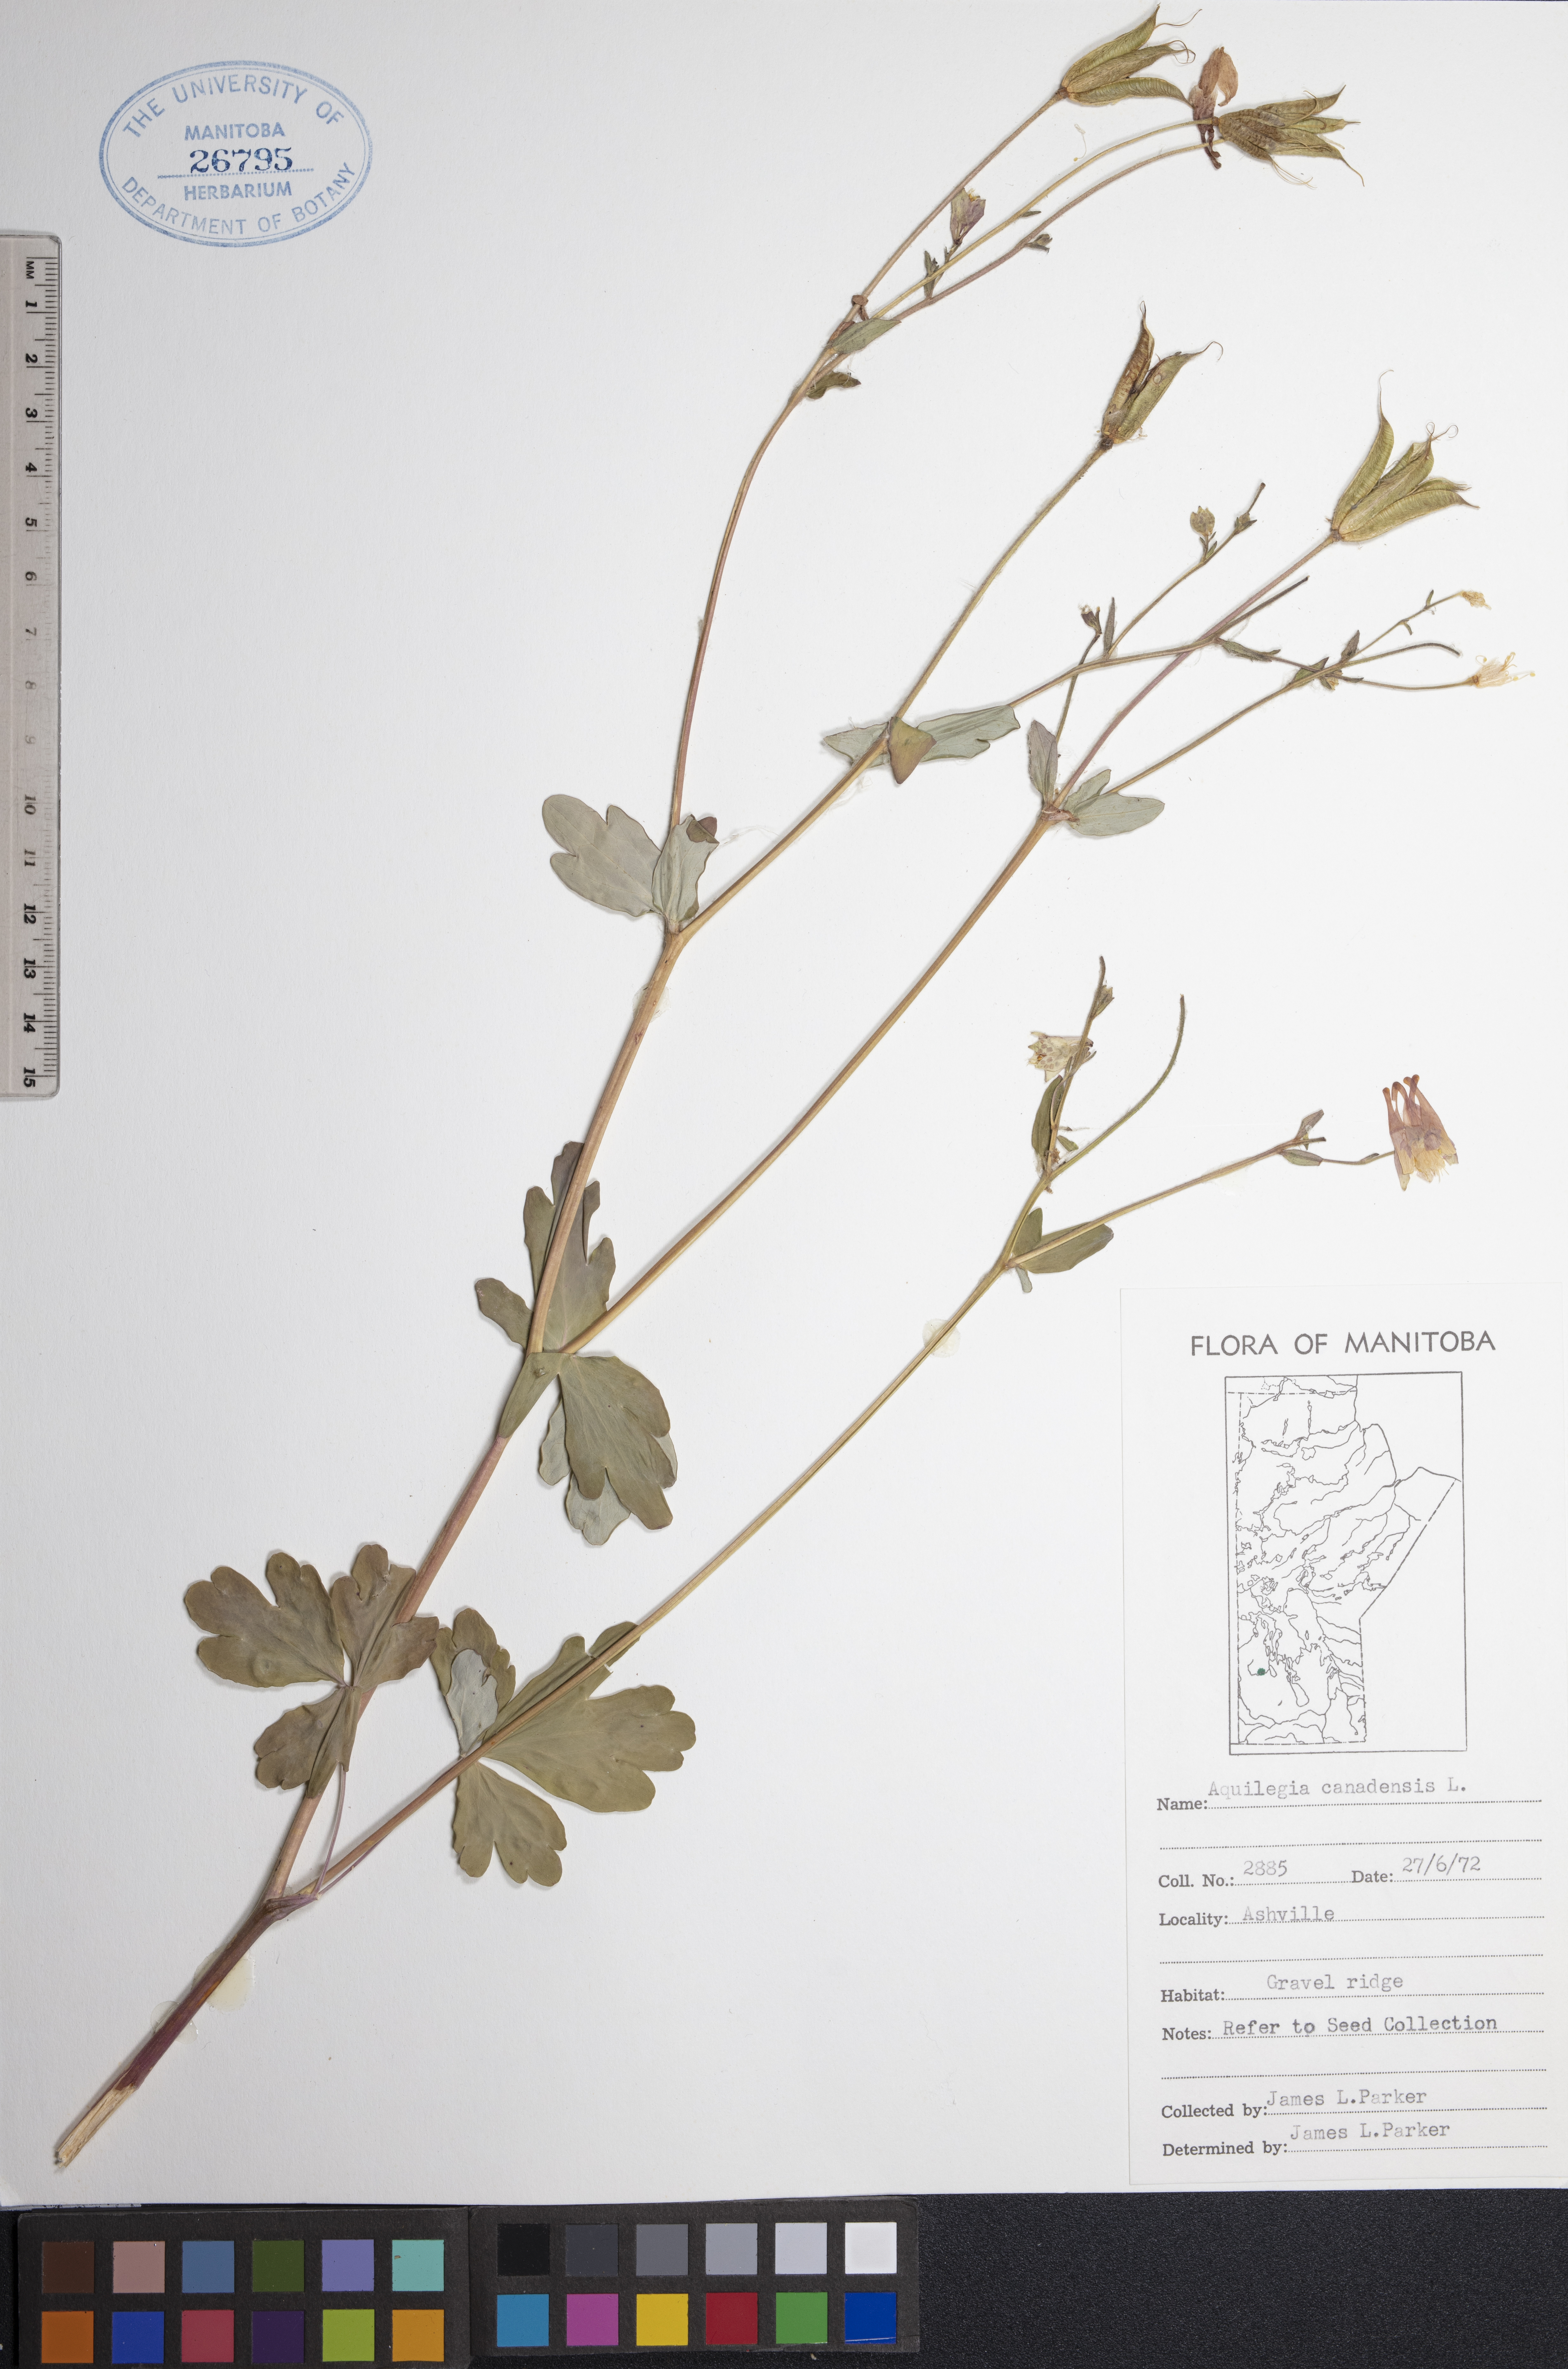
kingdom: Plantae
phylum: Tracheophyta
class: Magnoliopsida
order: Ranunculales
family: Ranunculaceae
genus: Aquilegia
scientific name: Aquilegia canadensis
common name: American columbine
